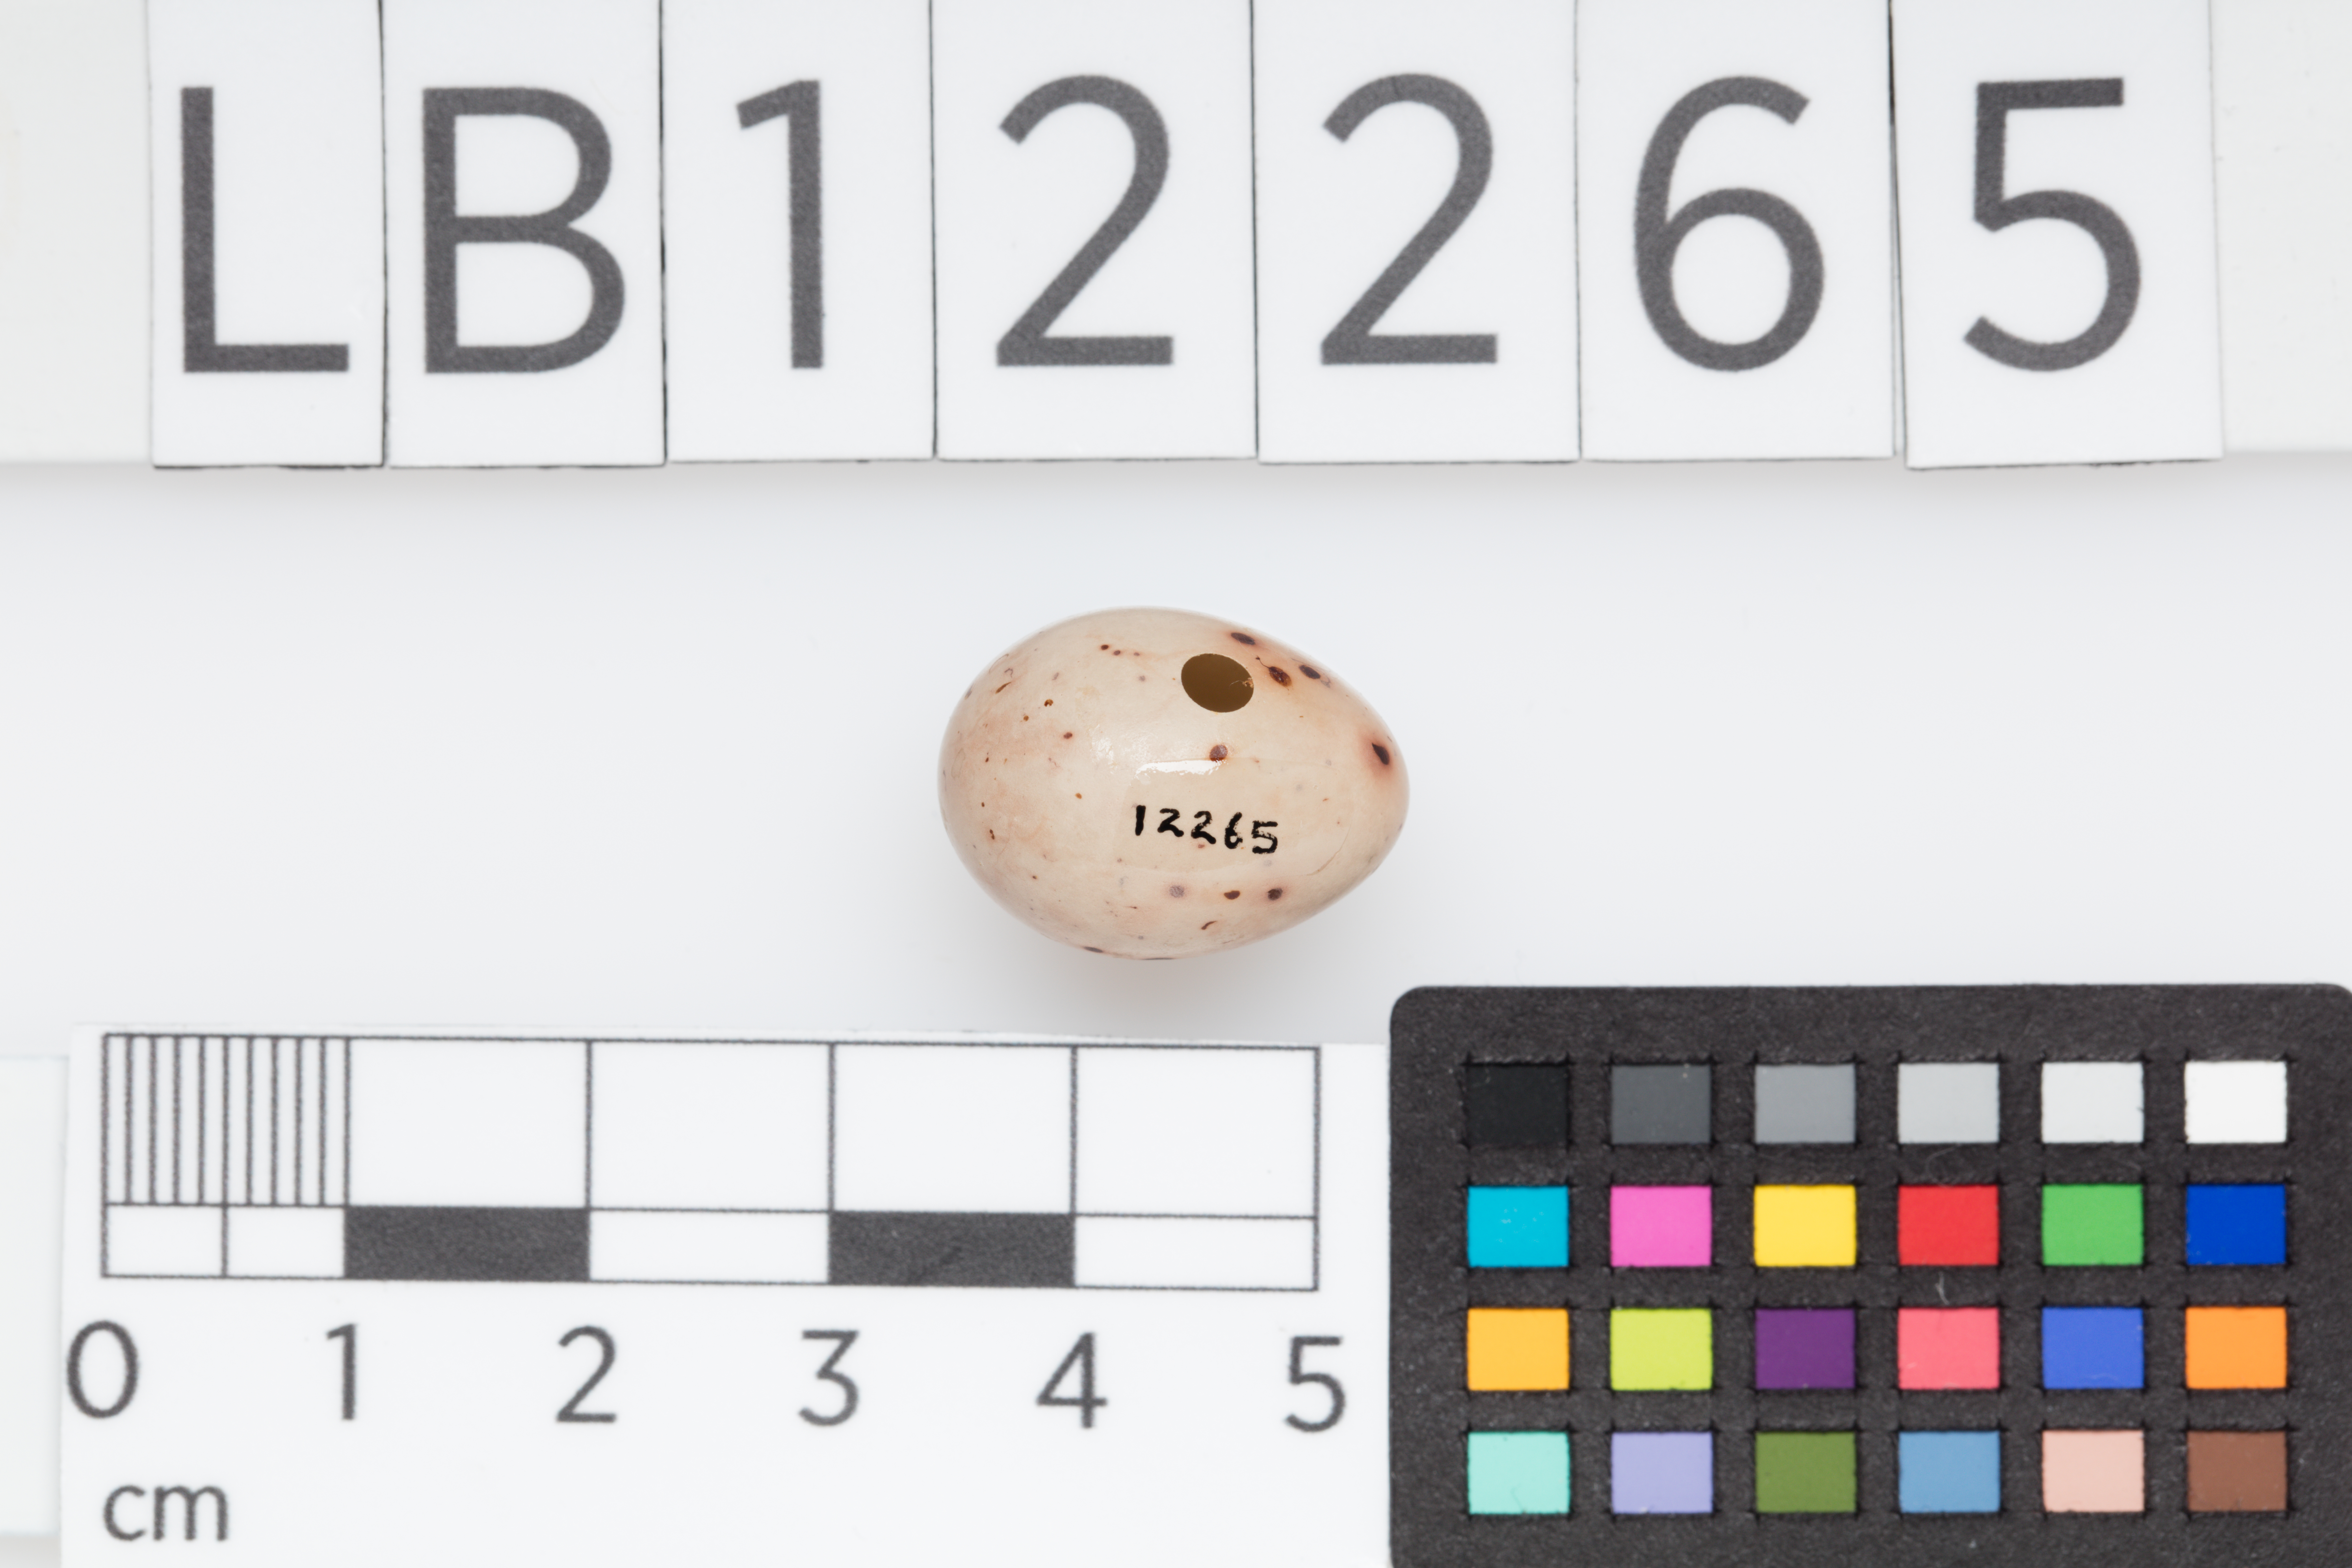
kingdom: Animalia
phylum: Chordata
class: Aves
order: Passeriformes
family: Fringillidae
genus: Fringilla
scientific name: Fringilla coelebs
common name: Common chaffinch
